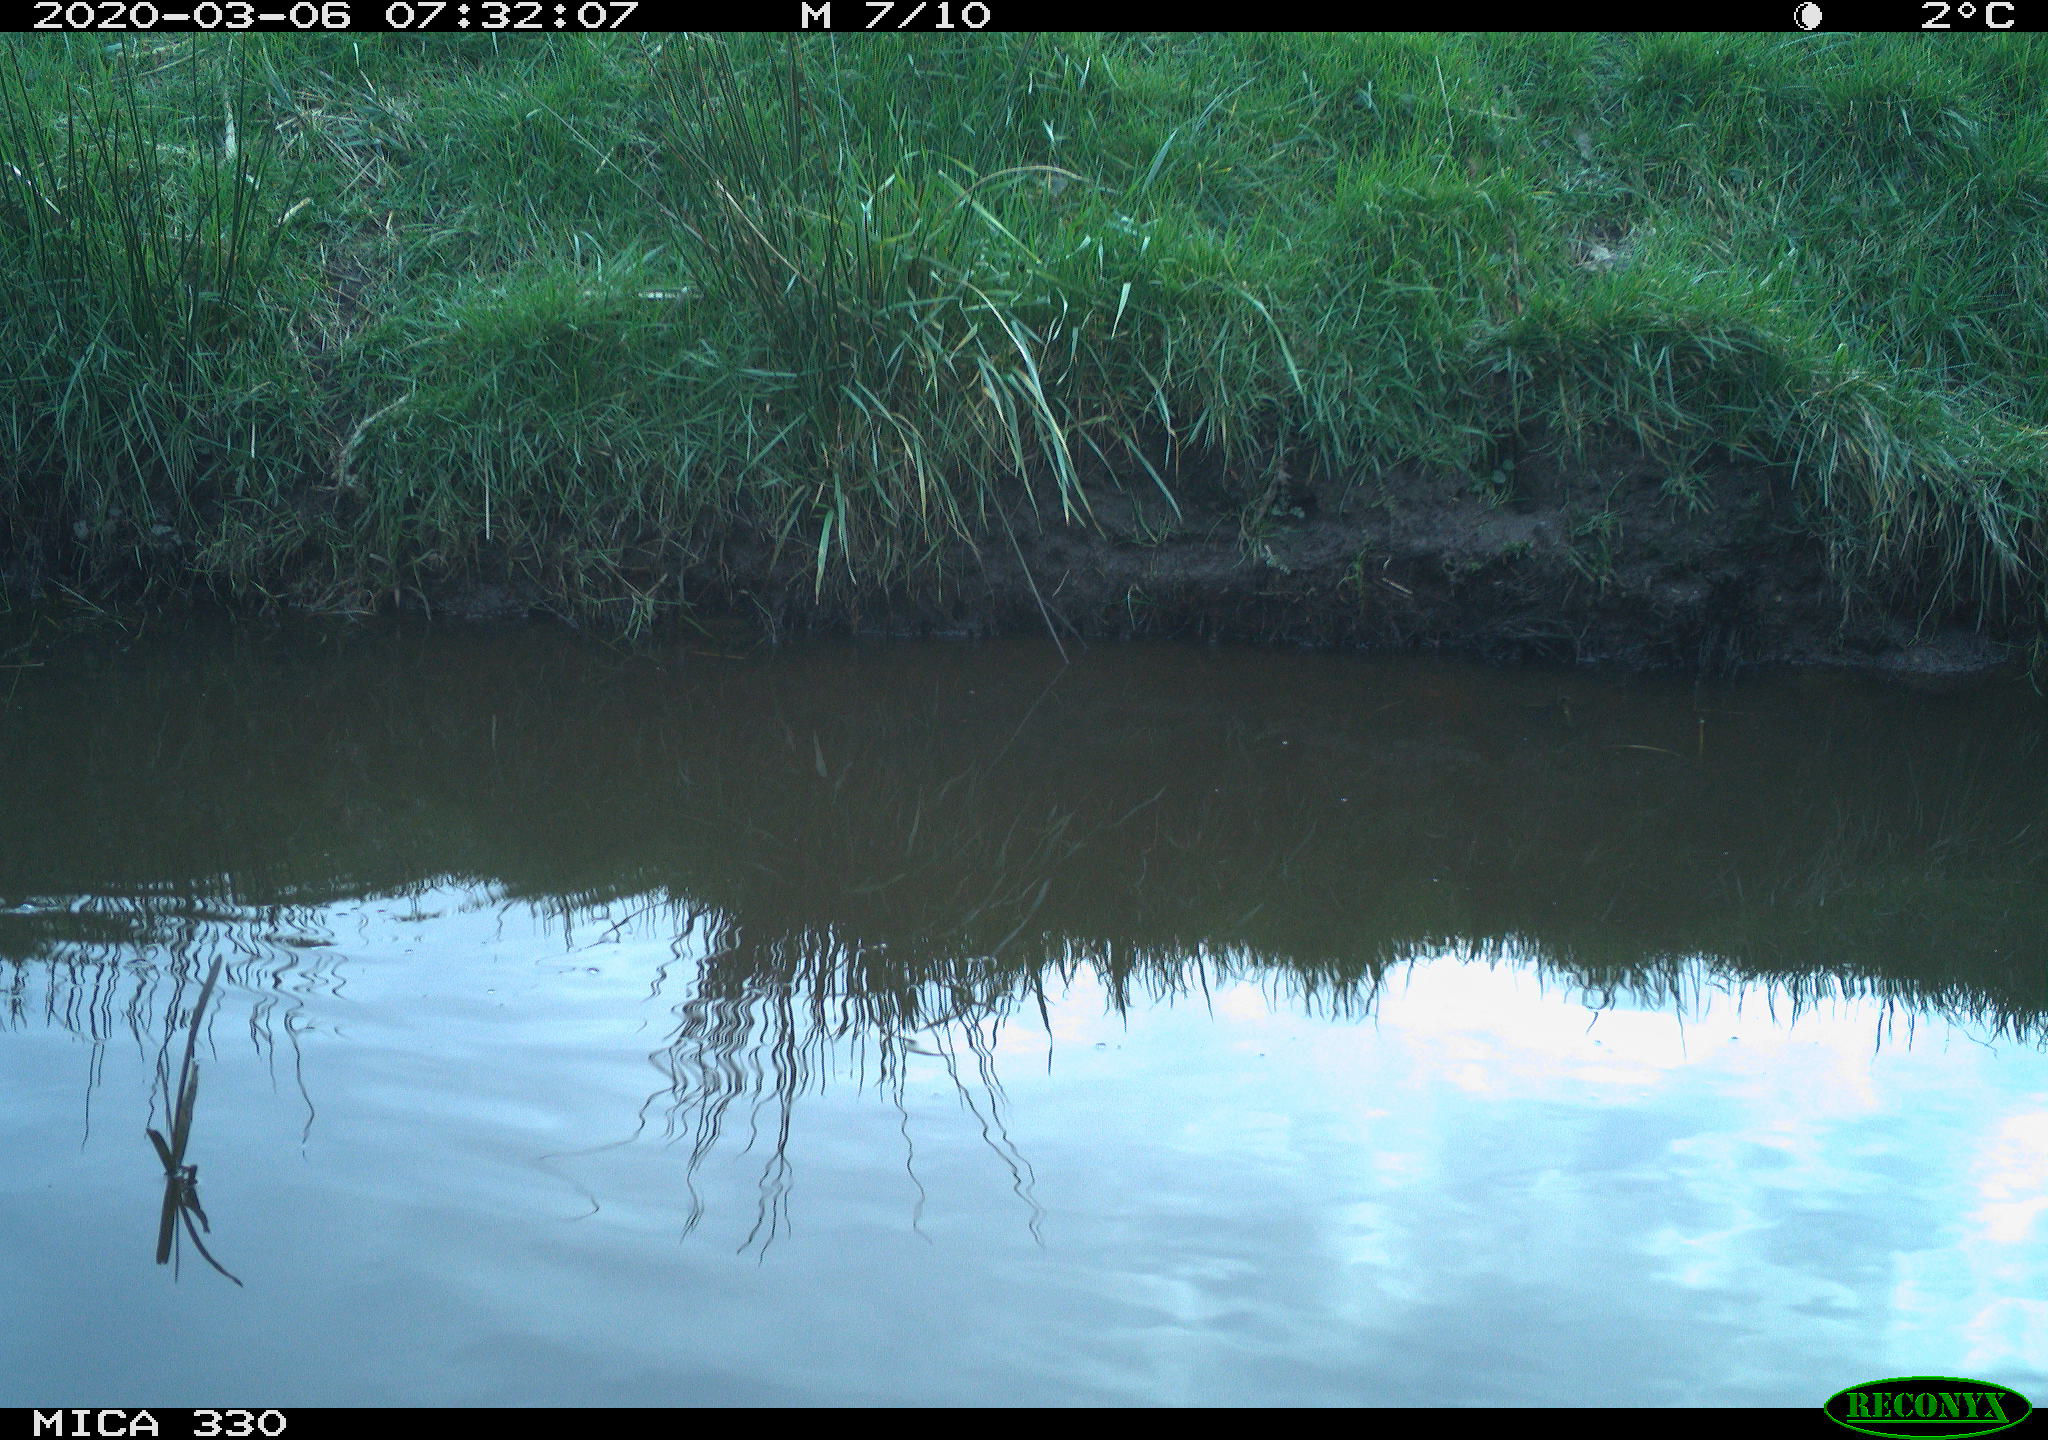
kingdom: Animalia
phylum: Chordata
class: Aves
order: Gruiformes
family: Rallidae
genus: Gallinula
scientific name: Gallinula chloropus
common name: Common moorhen
